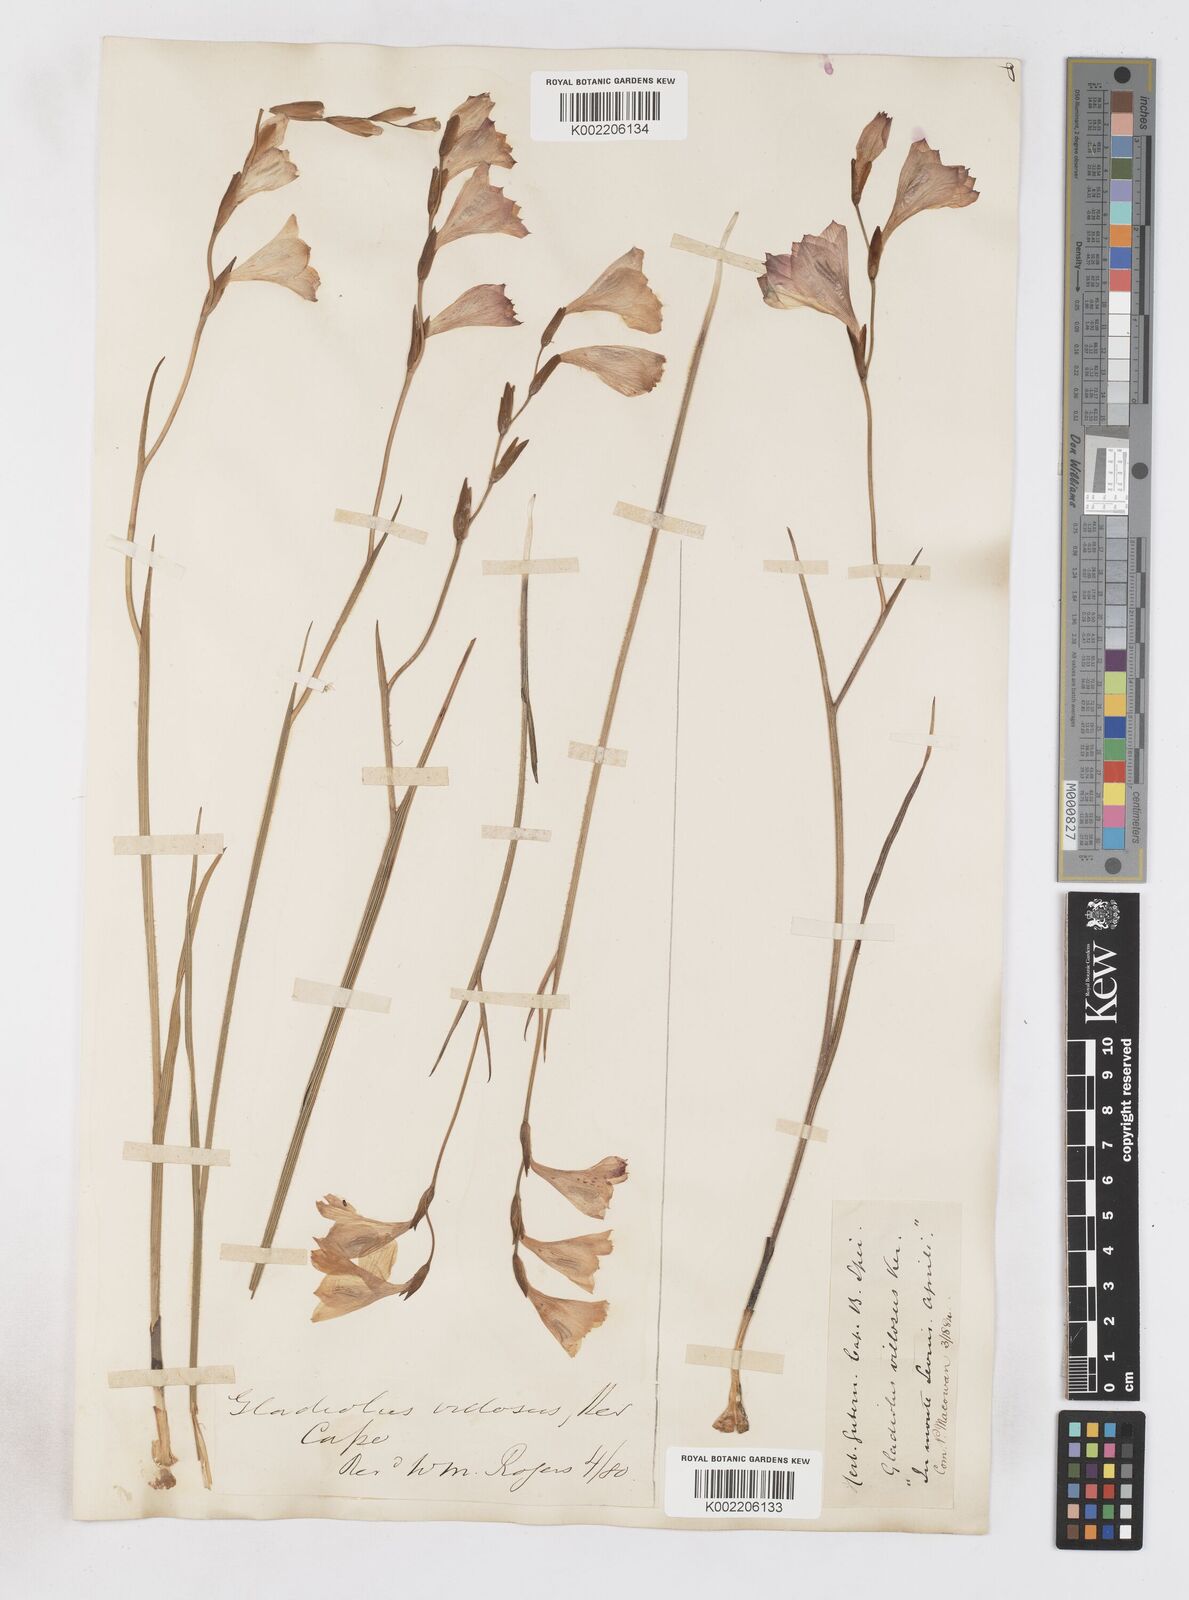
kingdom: Plantae
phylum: Tracheophyta
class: Liliopsida
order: Asparagales
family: Iridaceae
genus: Gladiolus
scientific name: Gladiolus hirsutus
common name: Small pink afrikaner
